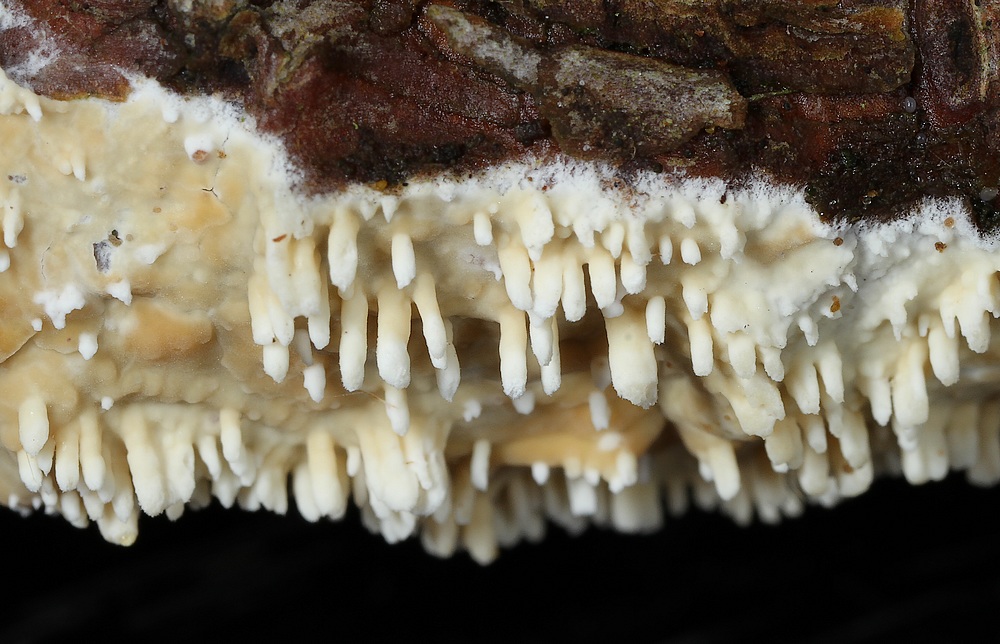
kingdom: Fungi
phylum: Basidiomycota
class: Agaricomycetes
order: Hymenochaetales
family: Schizoporaceae
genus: Xylodon
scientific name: Xylodon radula
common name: grovtandet kalkskind
